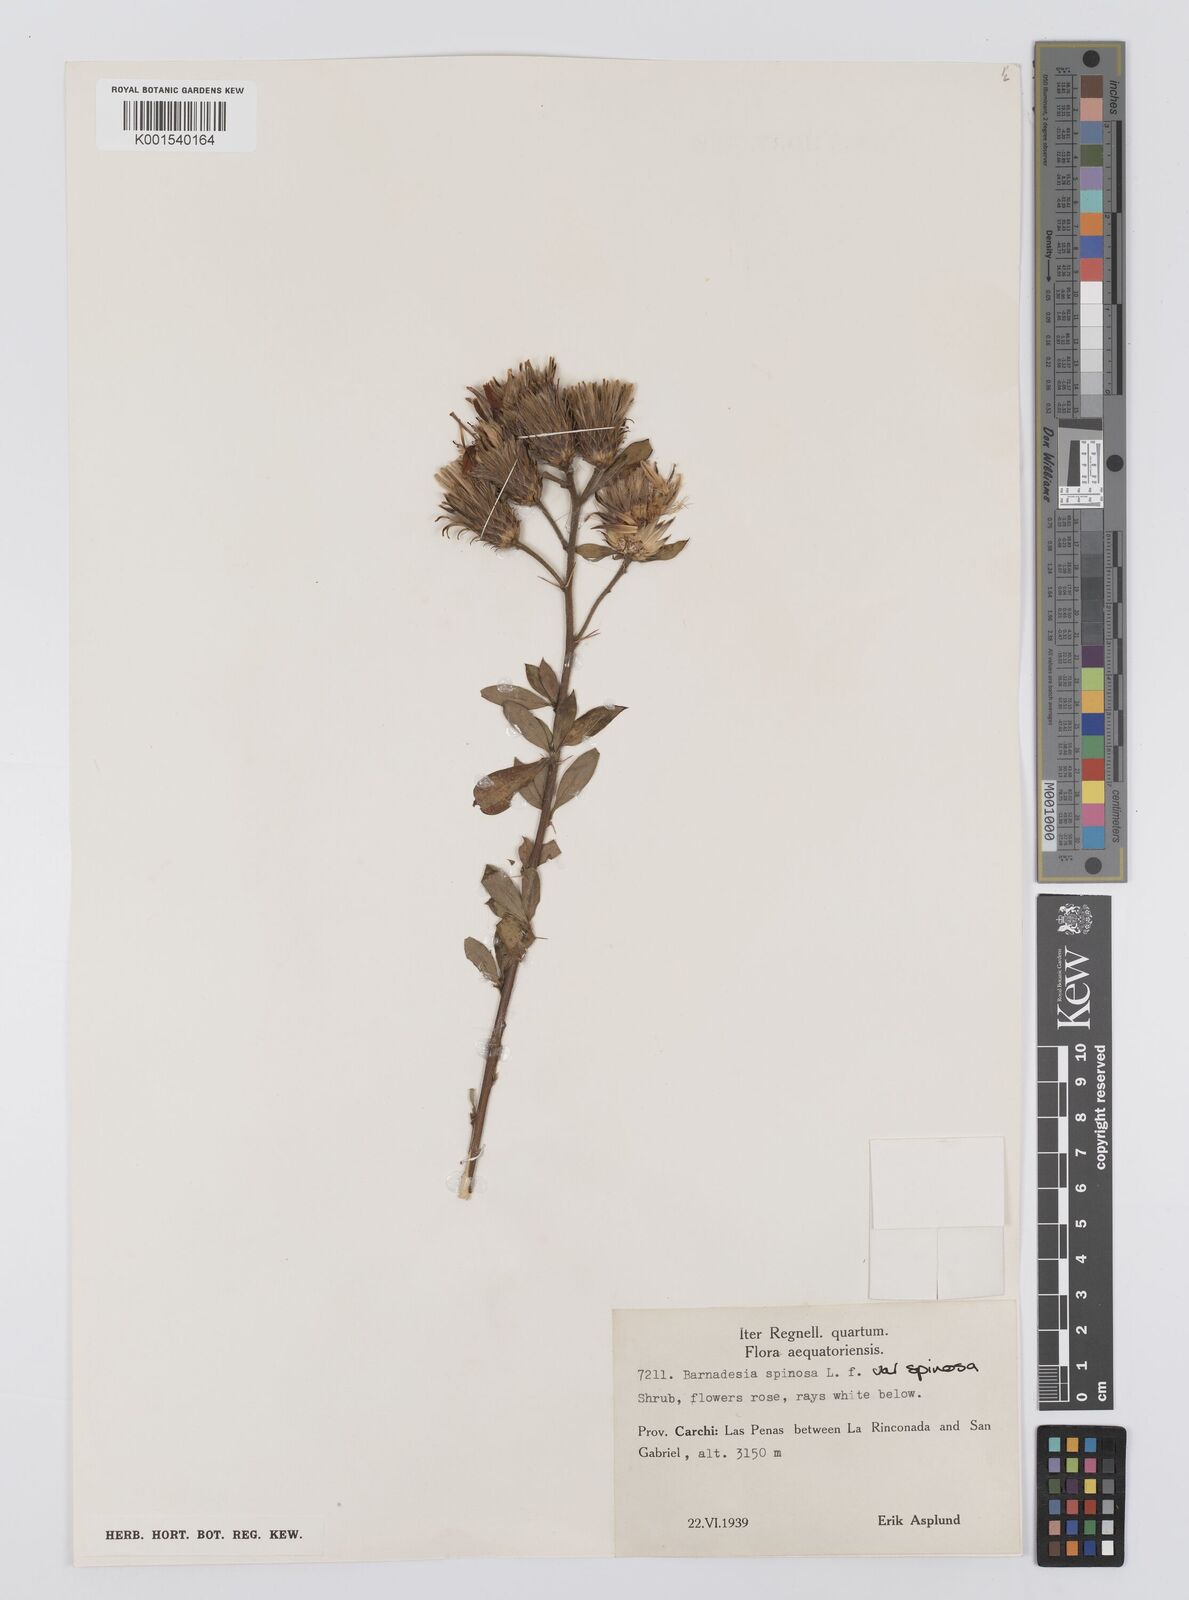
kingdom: Plantae
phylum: Tracheophyta
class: Magnoliopsida
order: Asterales
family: Asteraceae
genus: Barnadesia
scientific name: Barnadesia spinosa
